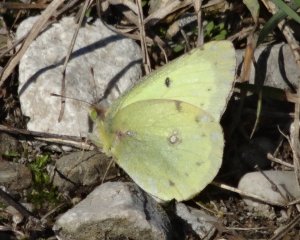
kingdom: Animalia
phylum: Arthropoda
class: Insecta
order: Lepidoptera
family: Pieridae
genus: Colias
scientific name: Colias philodice
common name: Clouded Sulphur
